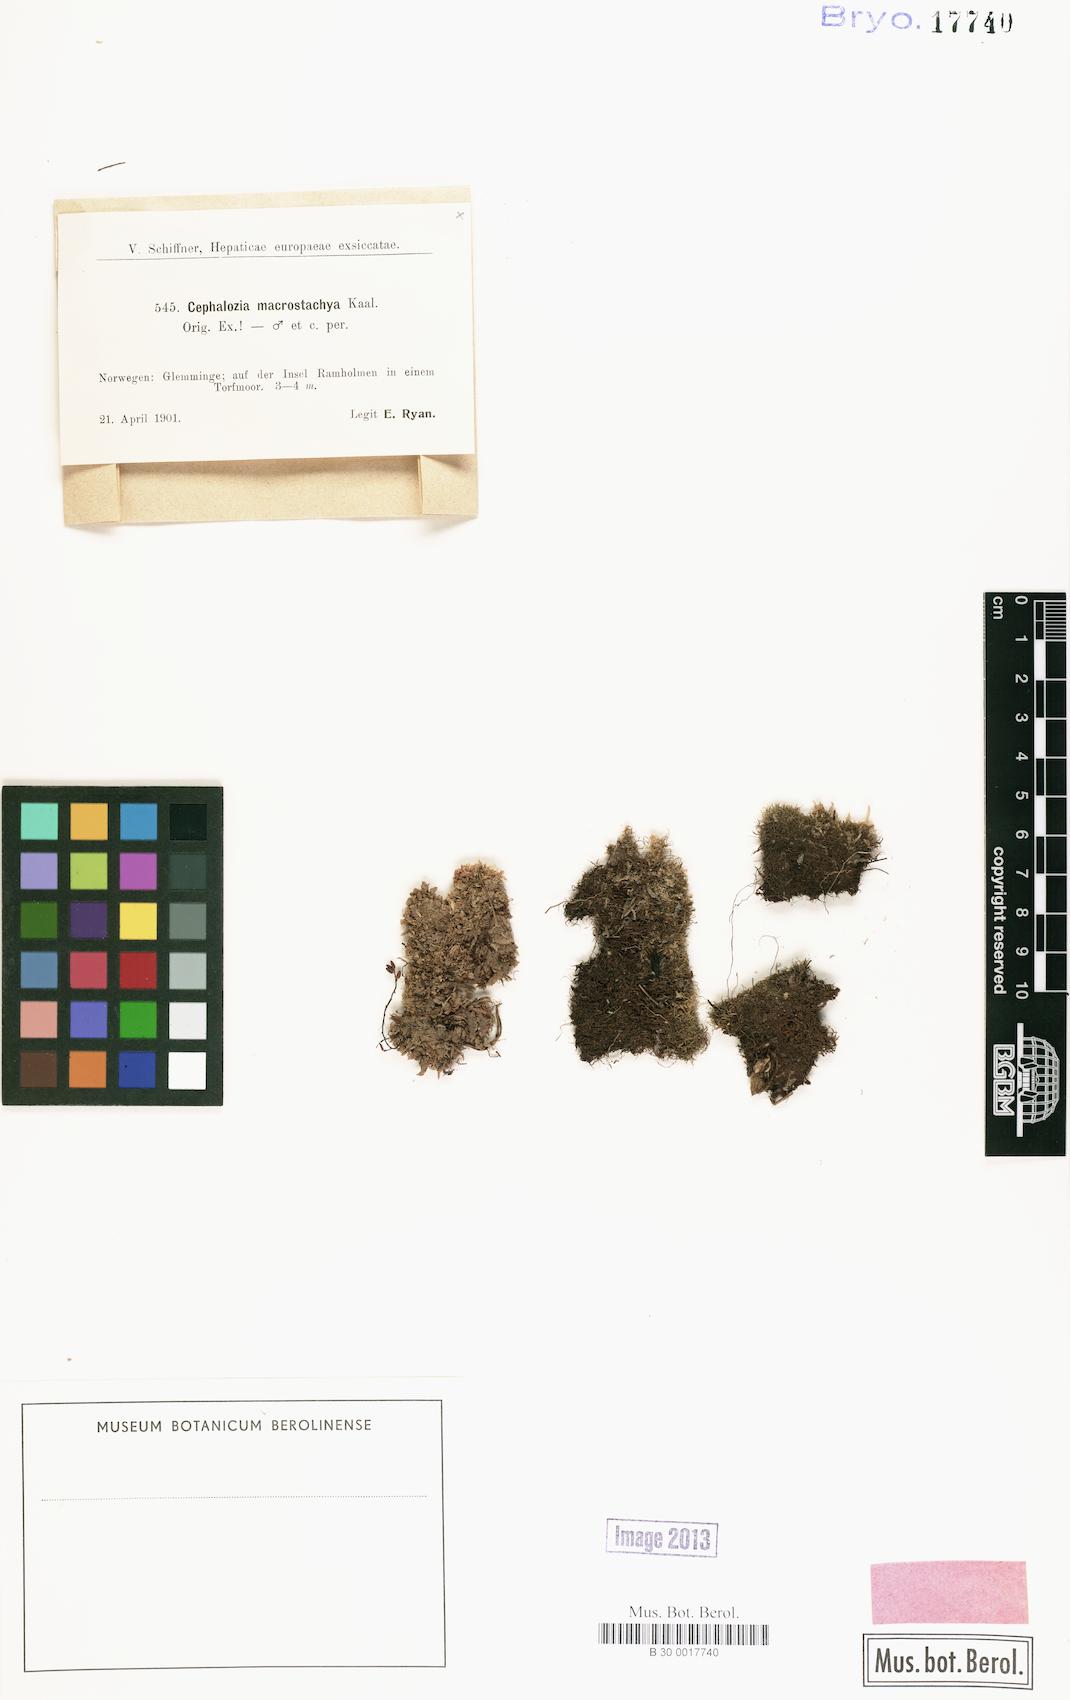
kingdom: Plantae
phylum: Marchantiophyta
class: Jungermanniopsida
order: Jungermanniales
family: Cephaloziaceae
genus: Fuscocephaloziopsis
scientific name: Fuscocephaloziopsis macrostachya
